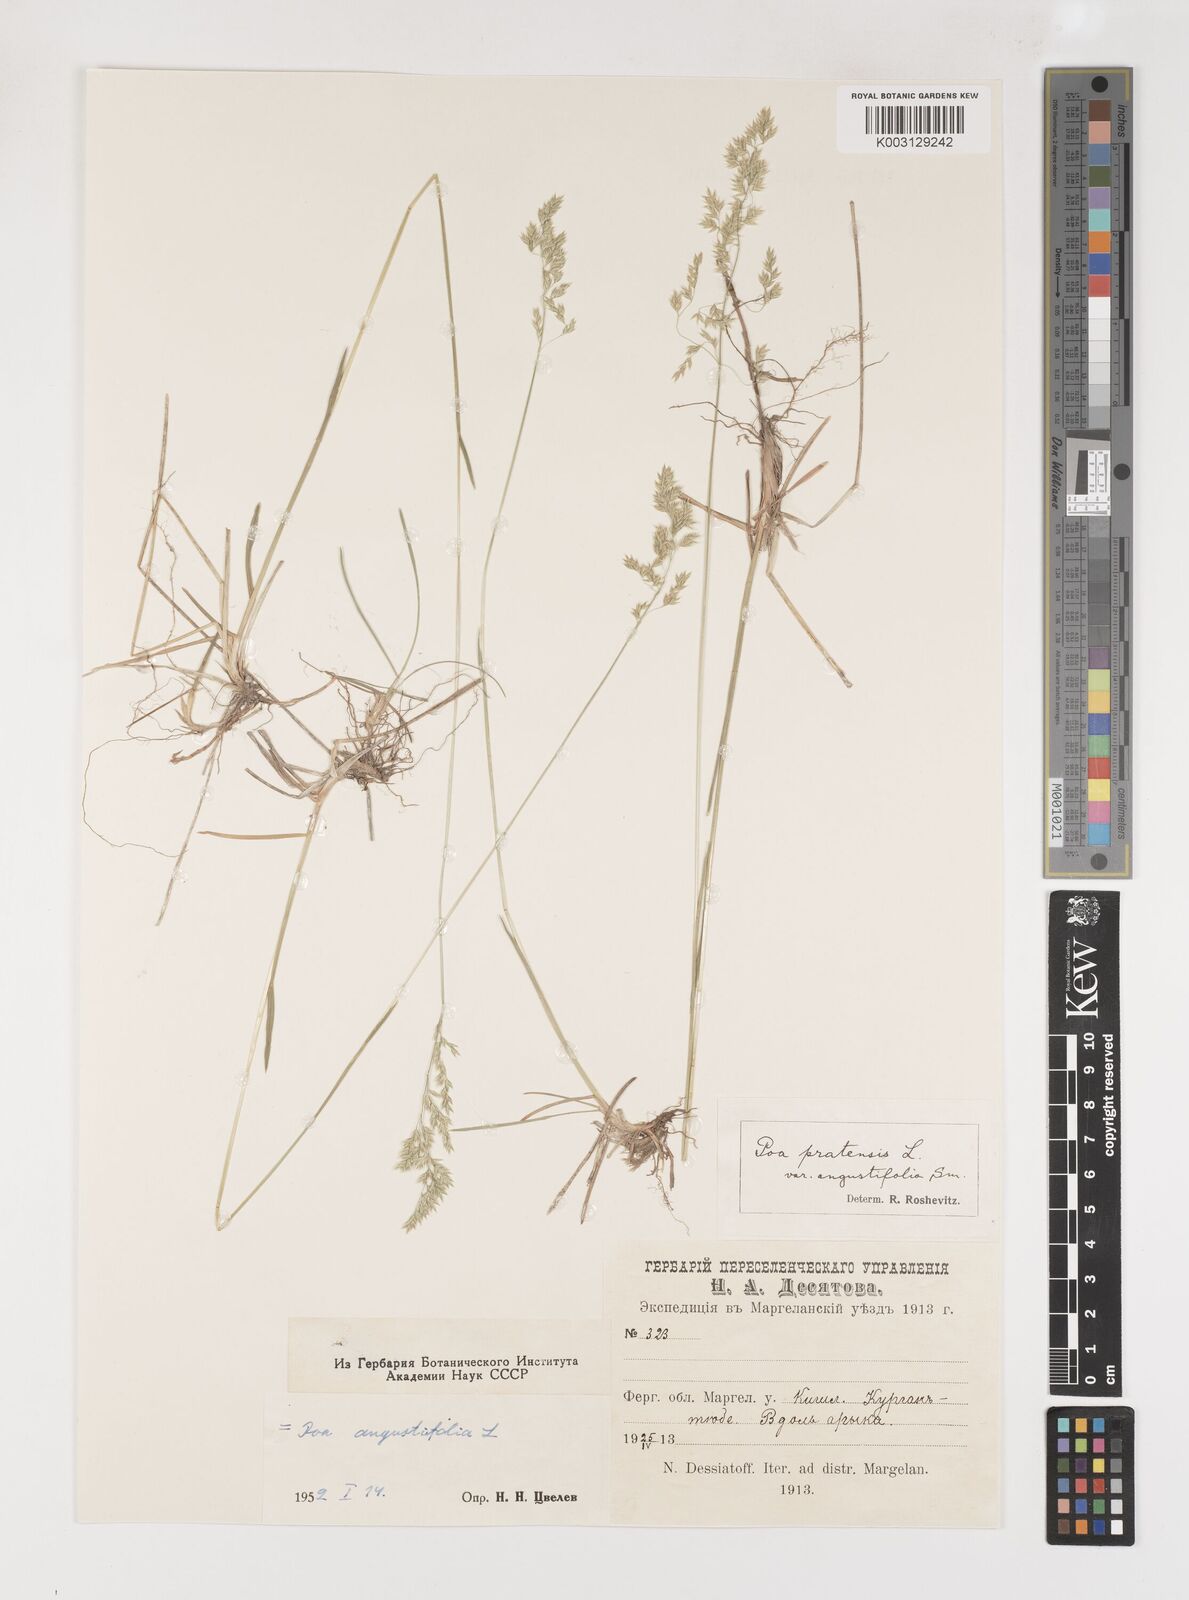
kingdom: Plantae
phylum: Tracheophyta
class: Liliopsida
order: Poales
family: Poaceae
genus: Poa
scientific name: Poa angustifolia
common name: Narrow-leaved meadow-grass
